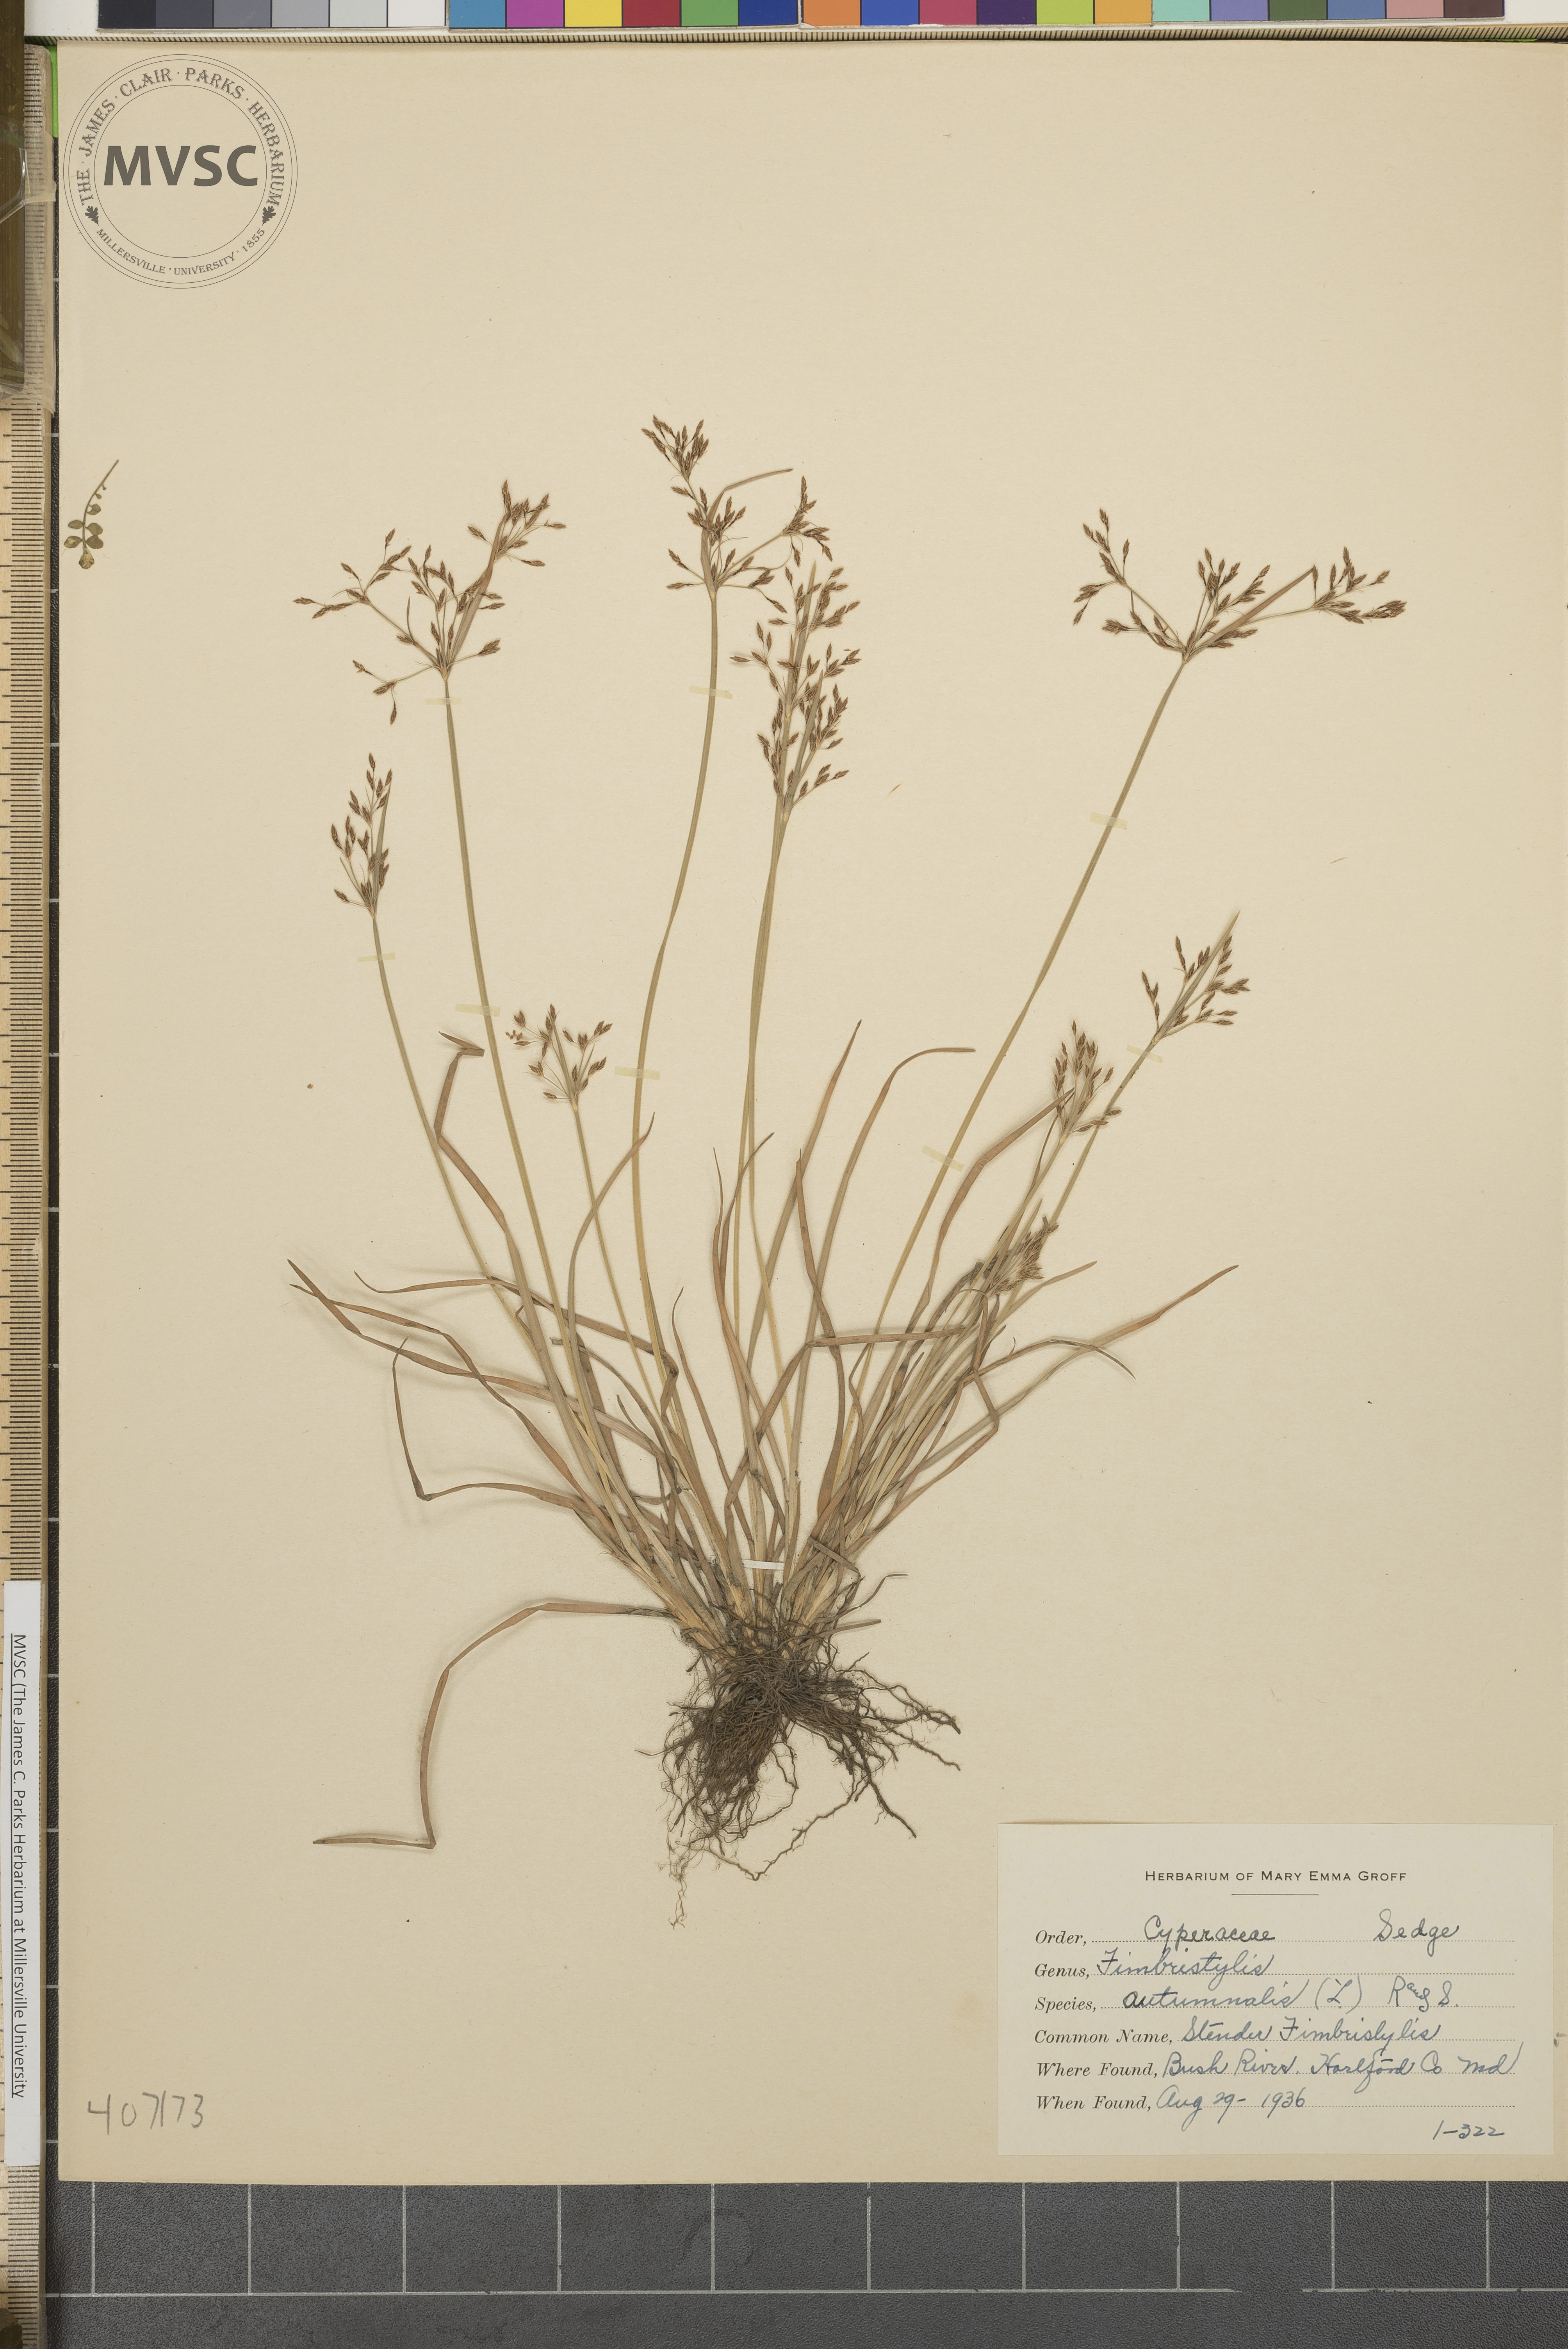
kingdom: Plantae
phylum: Tracheophyta
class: Liliopsida
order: Poales
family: Cyperaceae
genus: Fimbristylis
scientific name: Fimbristylis autumnalis
